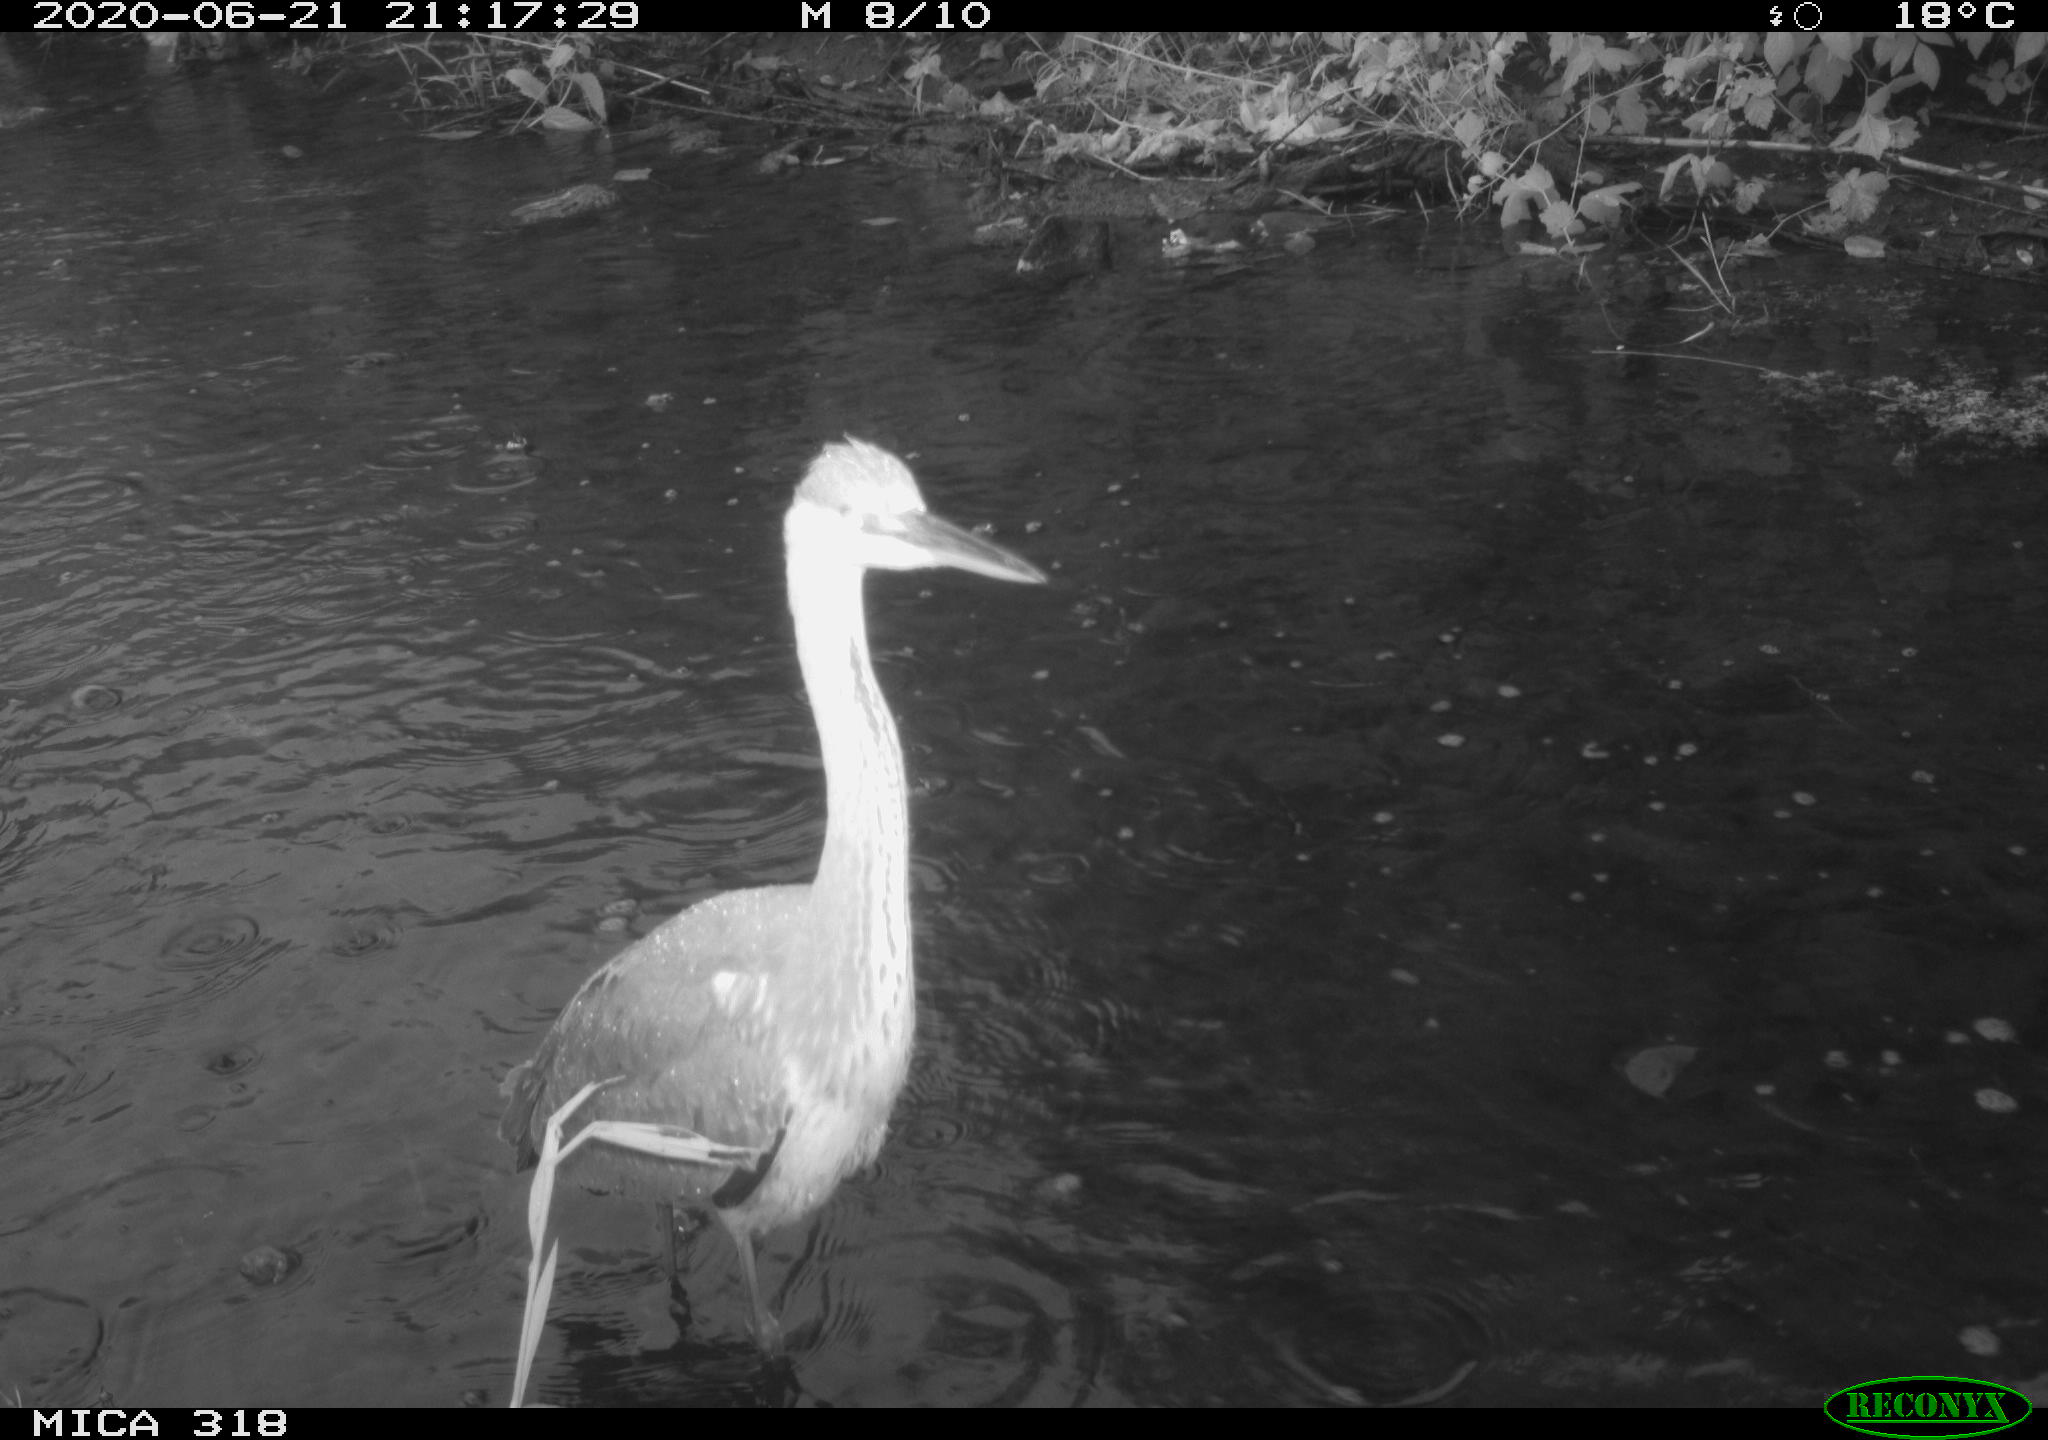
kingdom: Animalia
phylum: Chordata
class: Aves
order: Pelecaniformes
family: Ardeidae
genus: Ardea
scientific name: Ardea cinerea
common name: Grey heron
